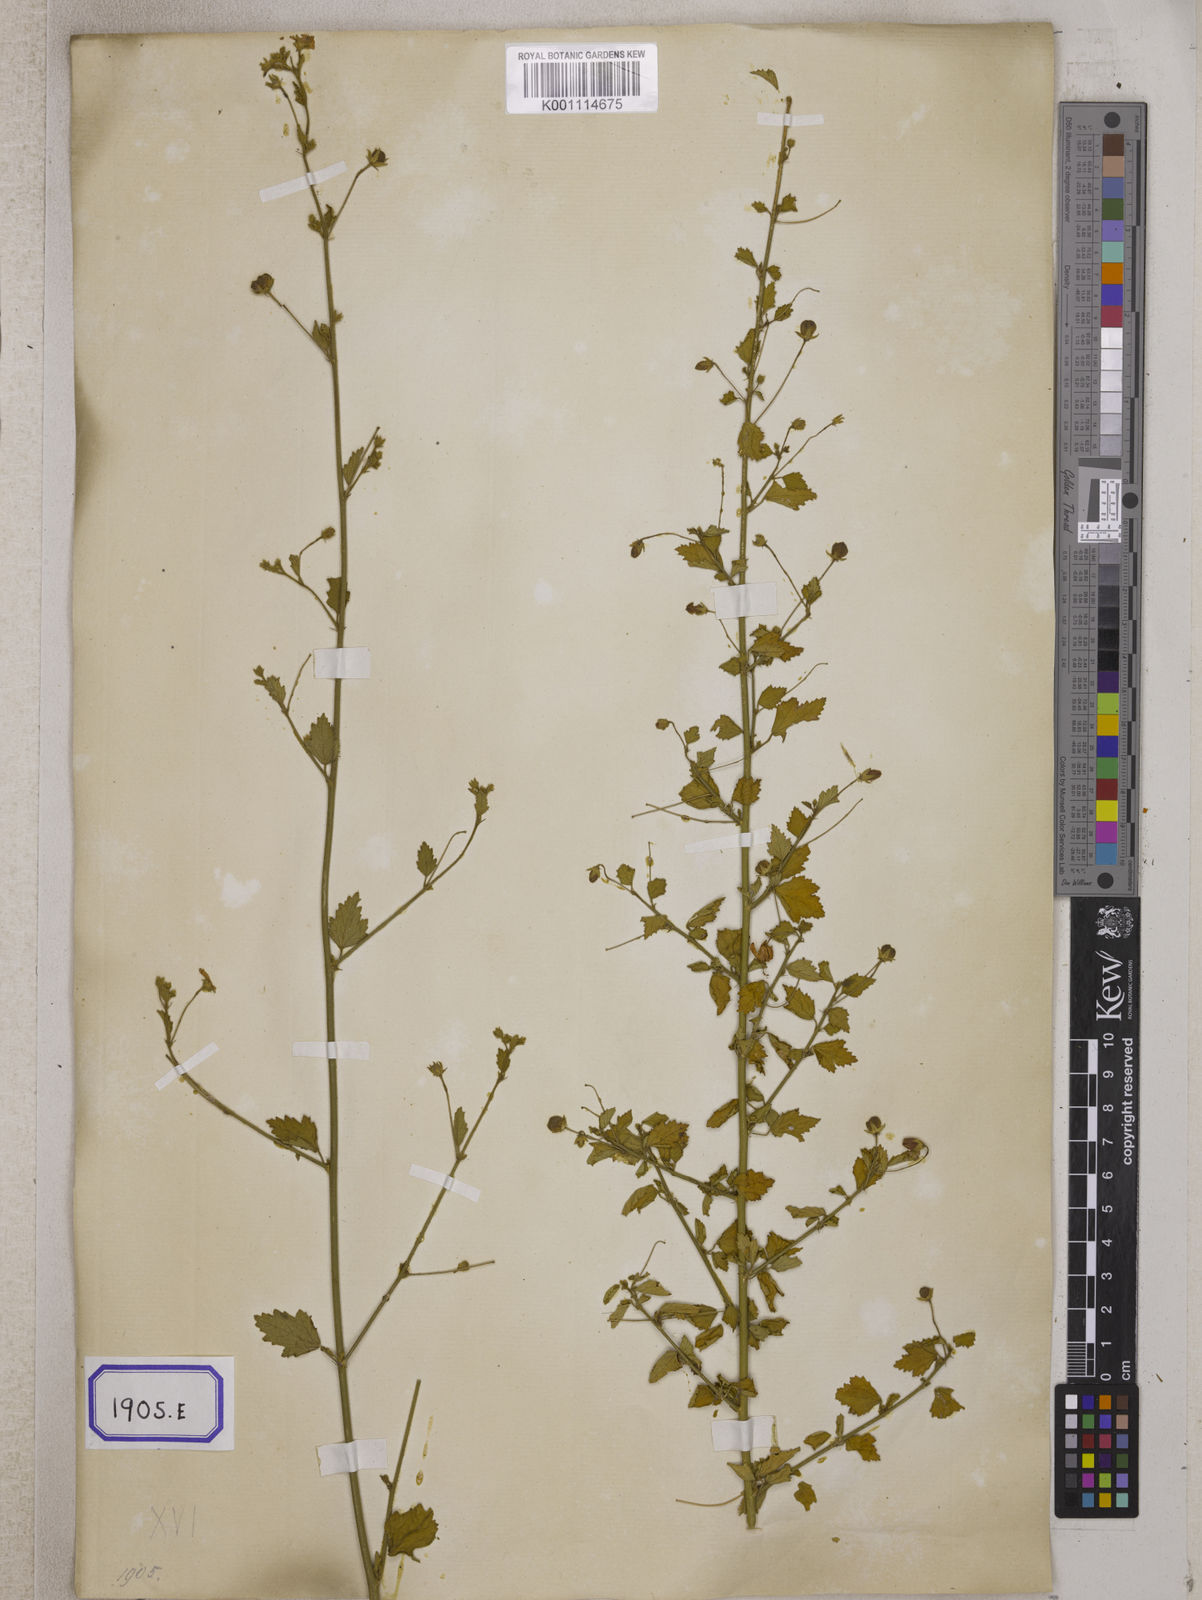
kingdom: Plantae
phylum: Tracheophyta
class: Magnoliopsida
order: Malvales
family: Malvaceae
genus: Hibiscus
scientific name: Hibiscus micranthus
